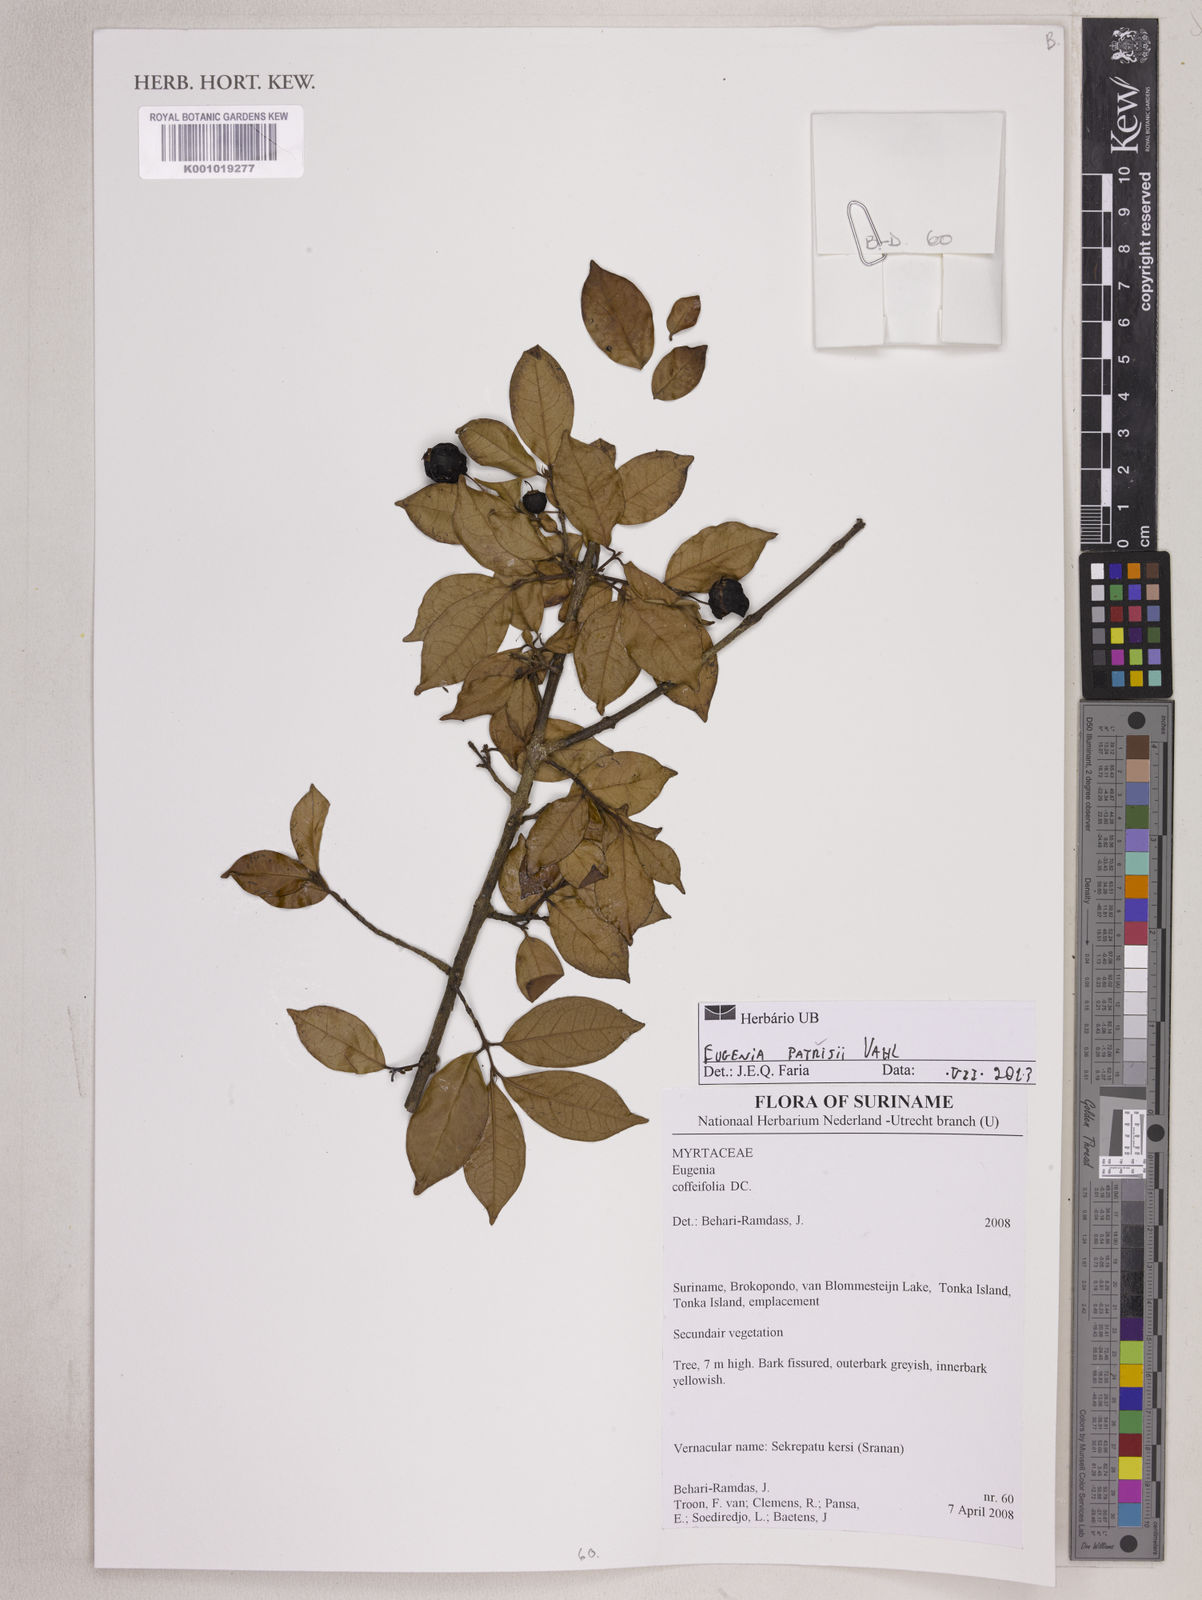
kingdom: Plantae
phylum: Tracheophyta
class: Magnoliopsida
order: Myrtales
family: Myrtaceae
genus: Eugenia
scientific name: Eugenia patrisii
